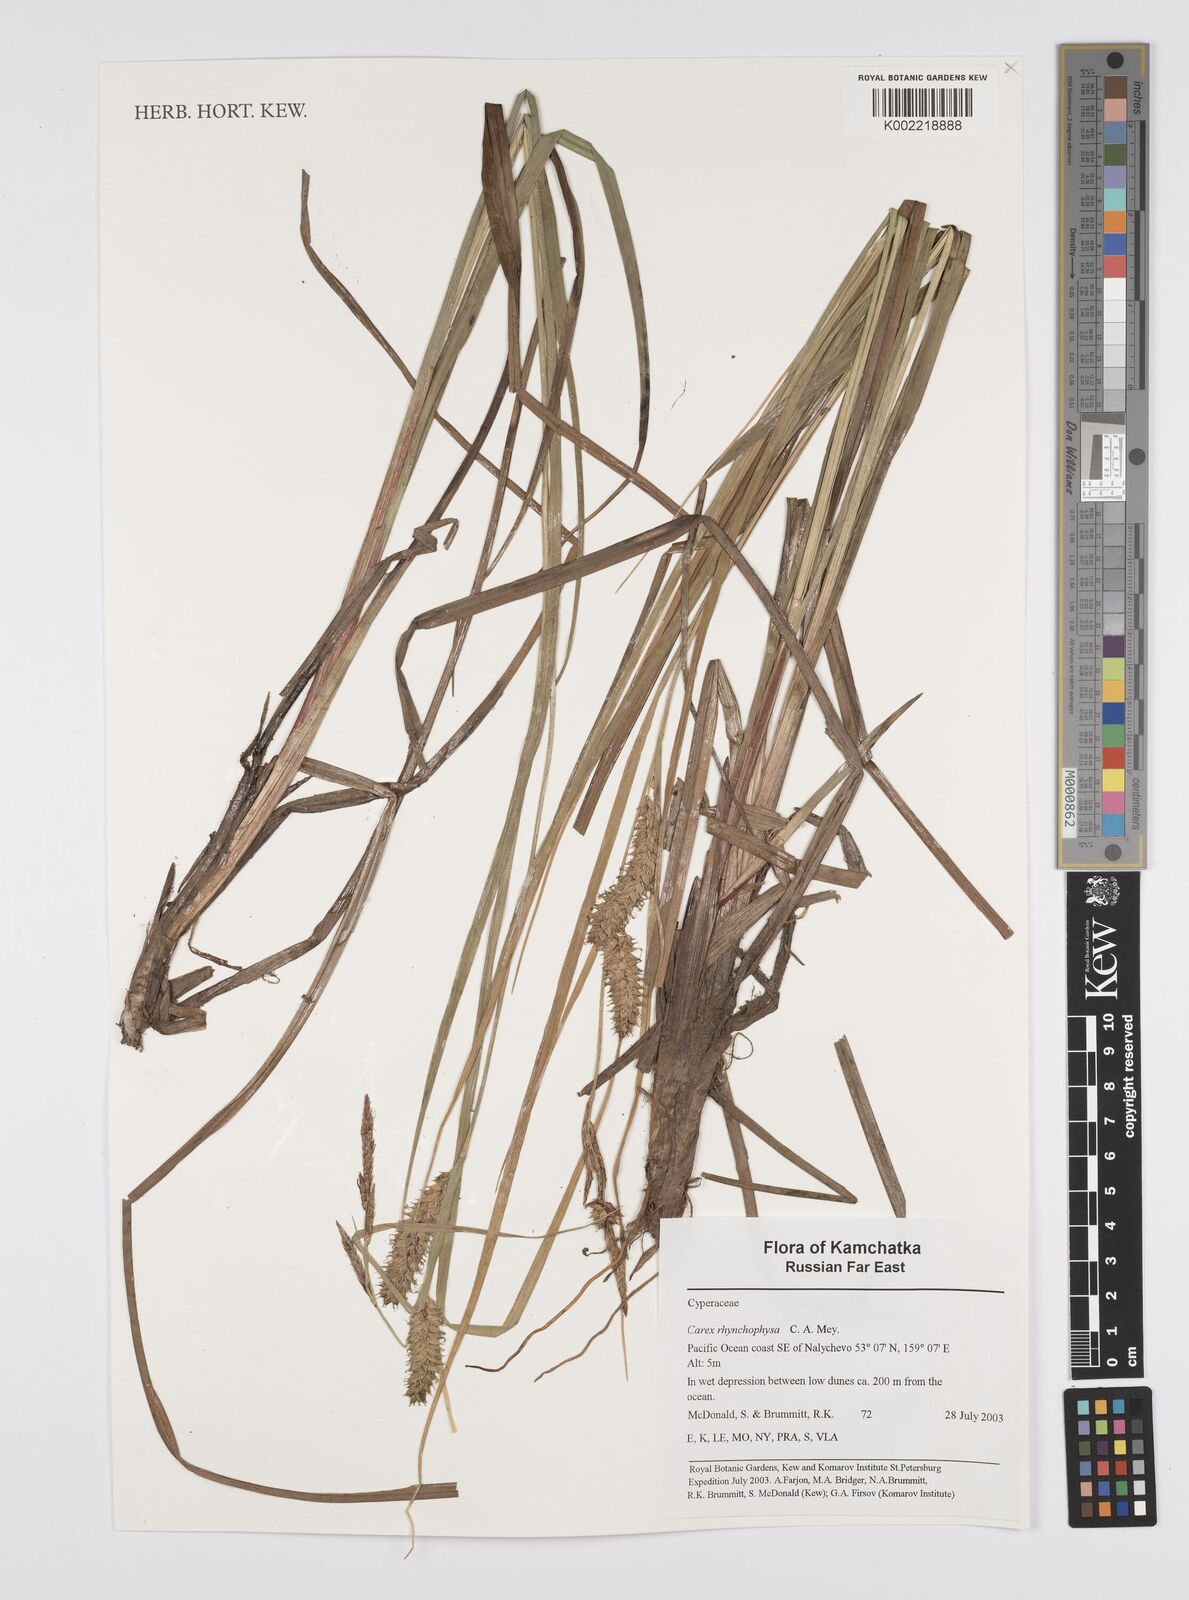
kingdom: Plantae
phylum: Tracheophyta
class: Liliopsida
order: Poales
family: Cyperaceae
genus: Carex
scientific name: Carex utriculata
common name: Beaked sedge
